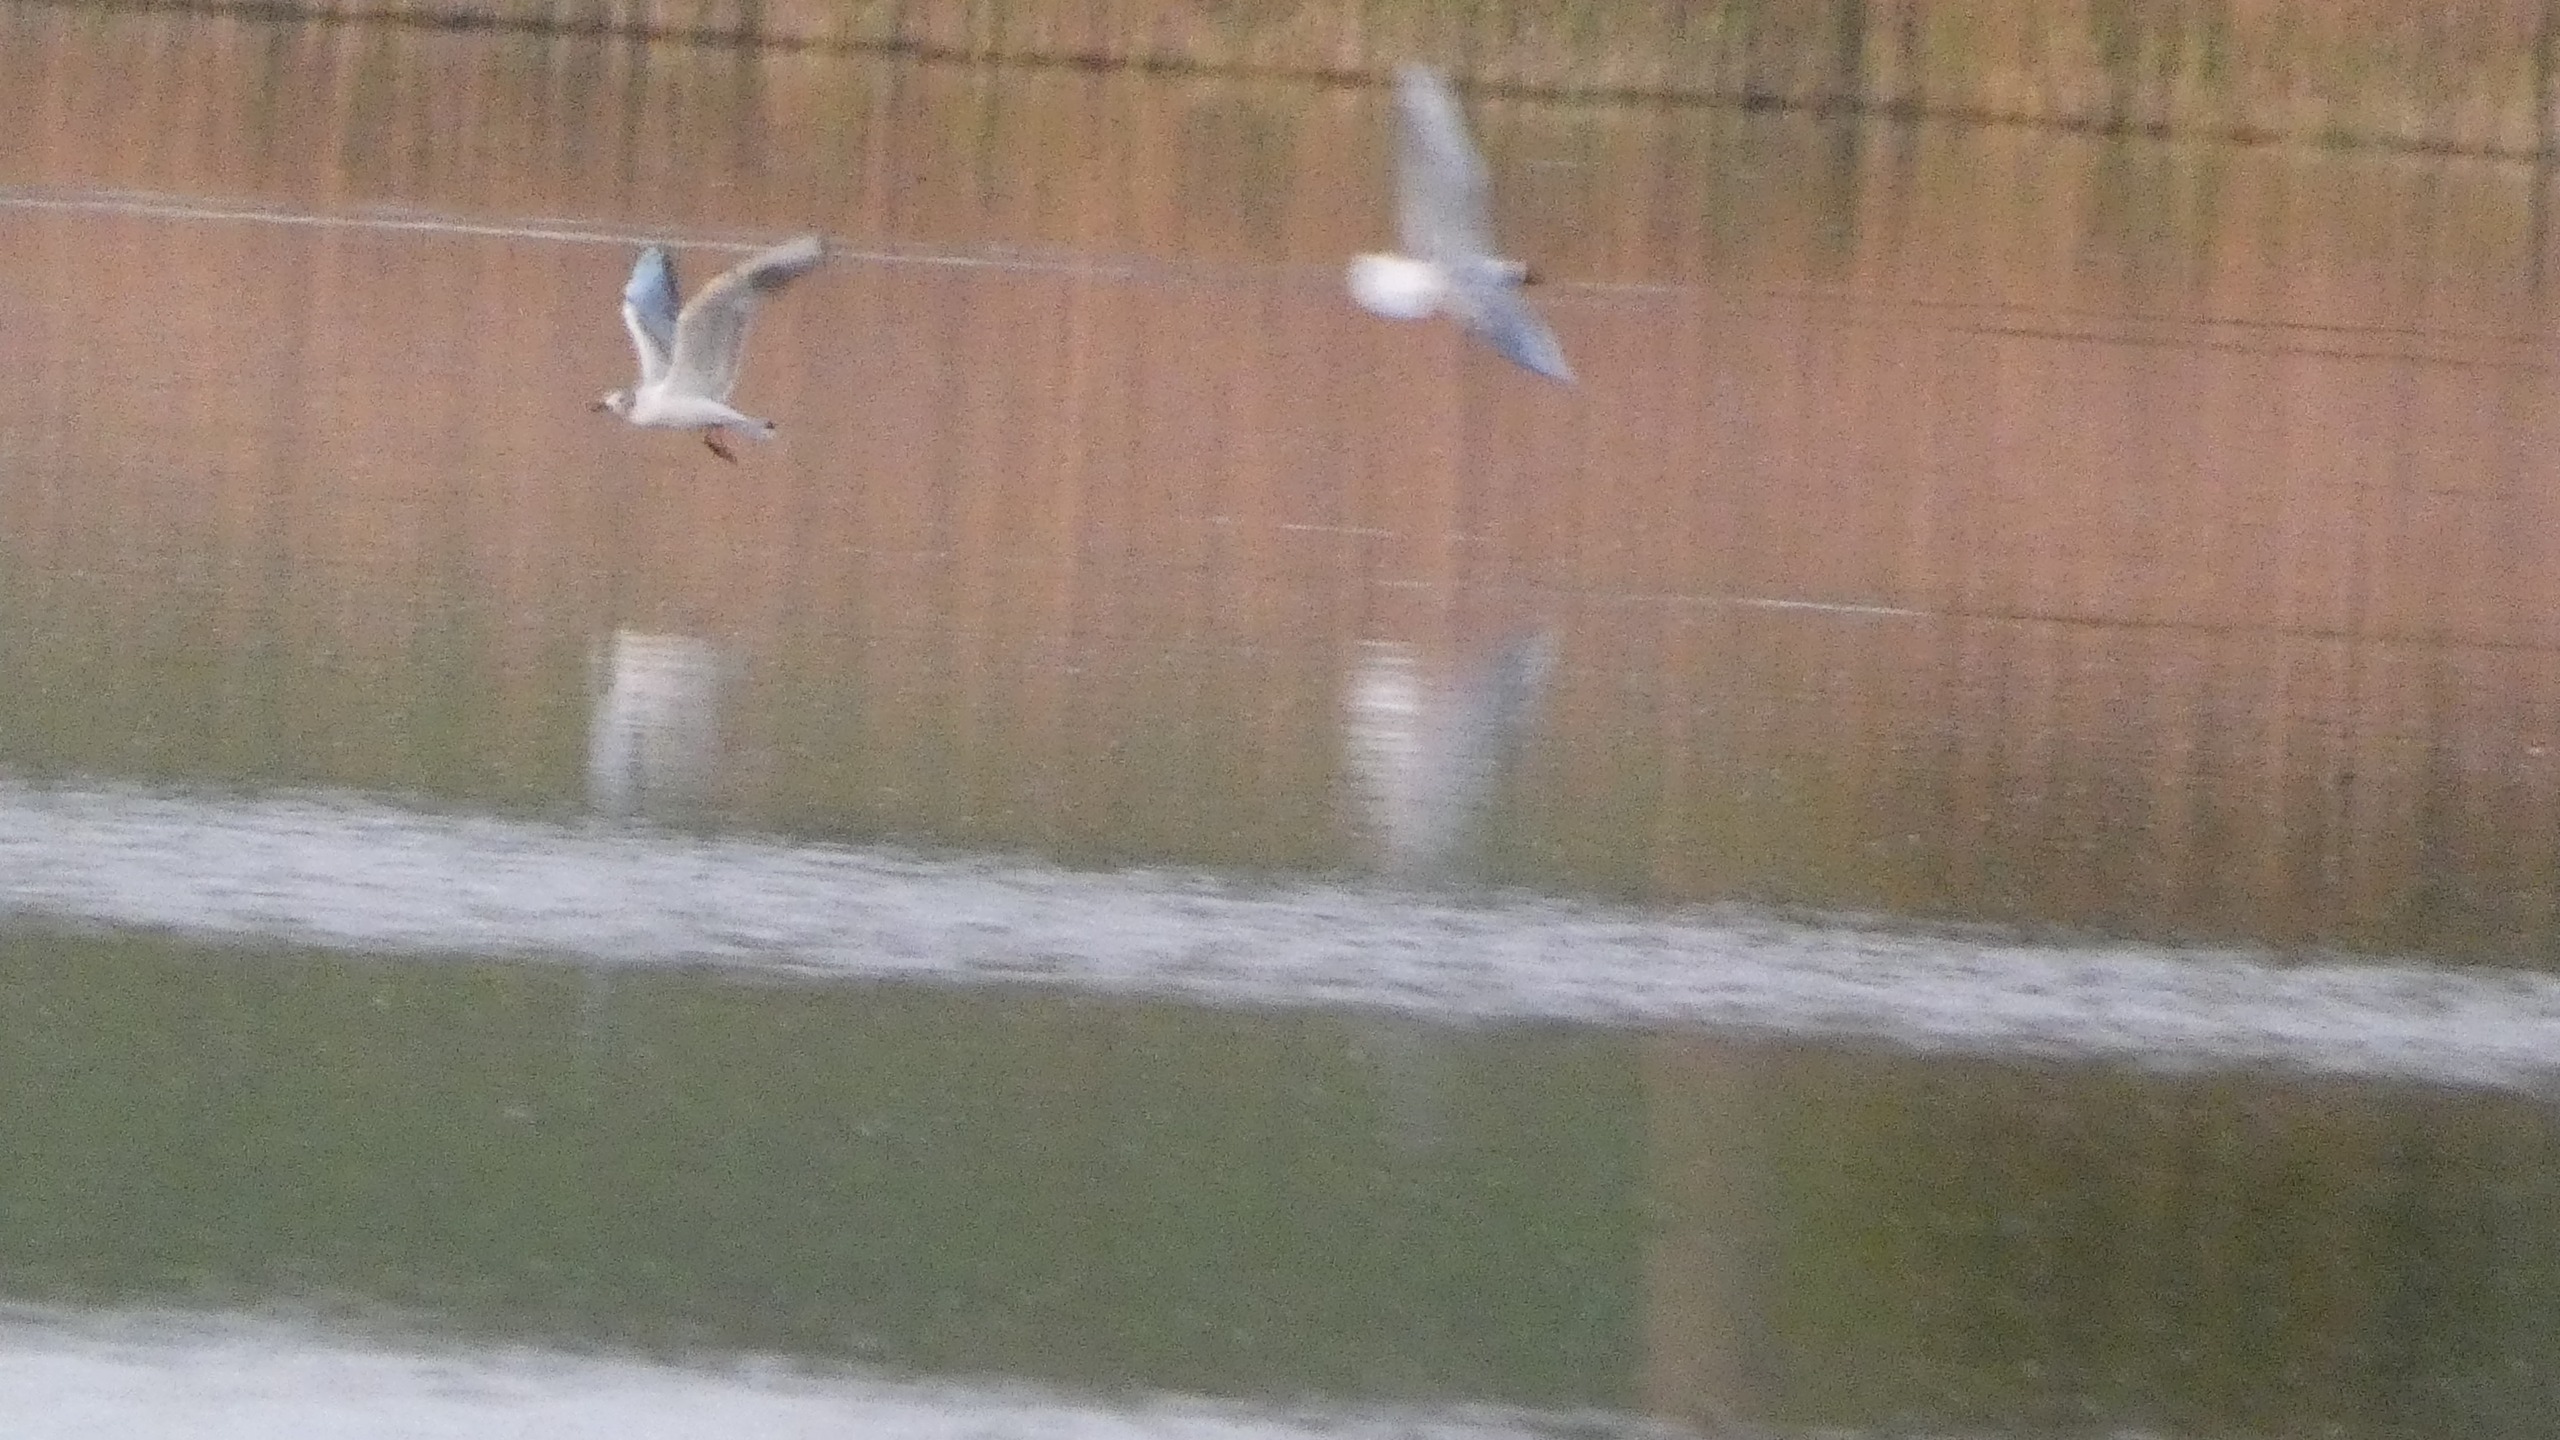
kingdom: Animalia
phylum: Chordata
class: Aves
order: Charadriiformes
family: Laridae
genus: Chroicocephalus
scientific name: Chroicocephalus ridibundus
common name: Hættemåge
